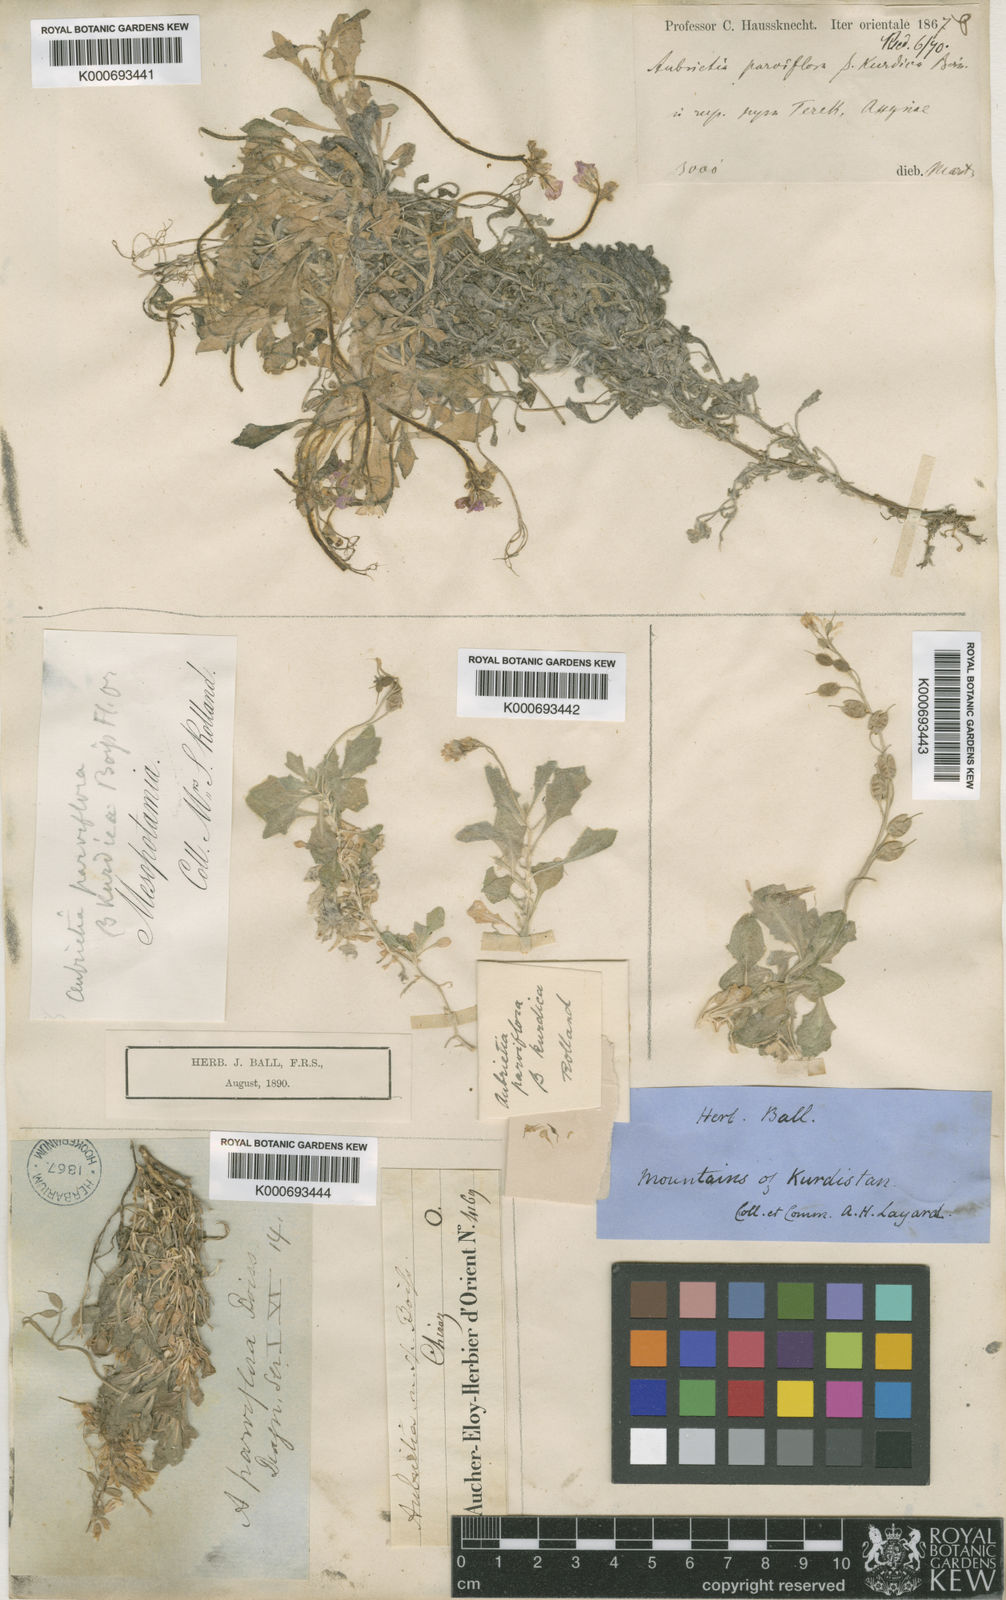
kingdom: Plantae
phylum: Tracheophyta
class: Magnoliopsida
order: Brassicales
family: Brassicaceae
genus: Aubrieta
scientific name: Aubrieta parviflora
